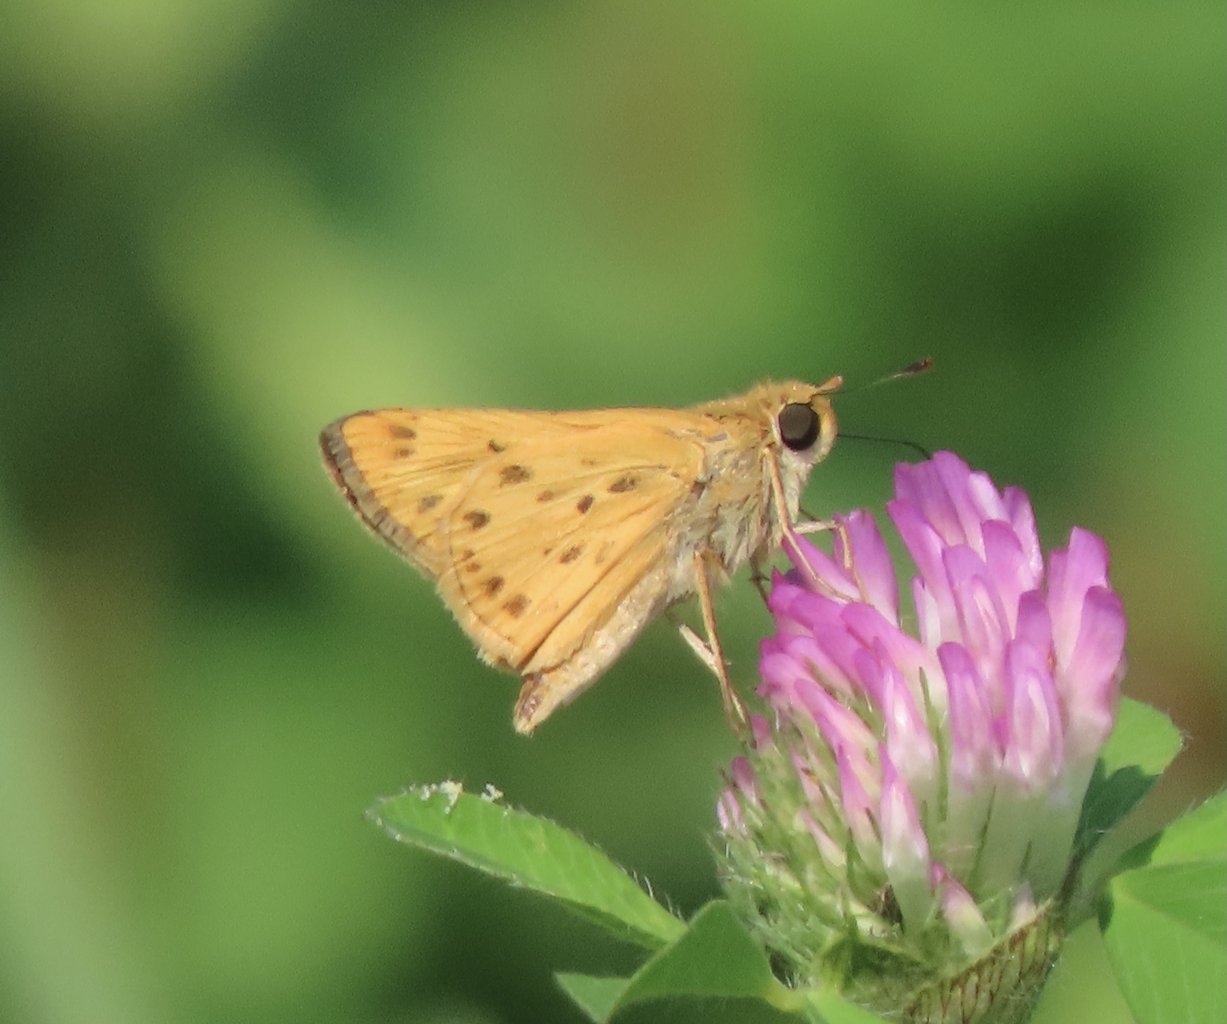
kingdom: Animalia
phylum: Arthropoda
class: Insecta
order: Lepidoptera
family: Hesperiidae
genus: Hylephila
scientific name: Hylephila phyleus
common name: Fiery Skipper
